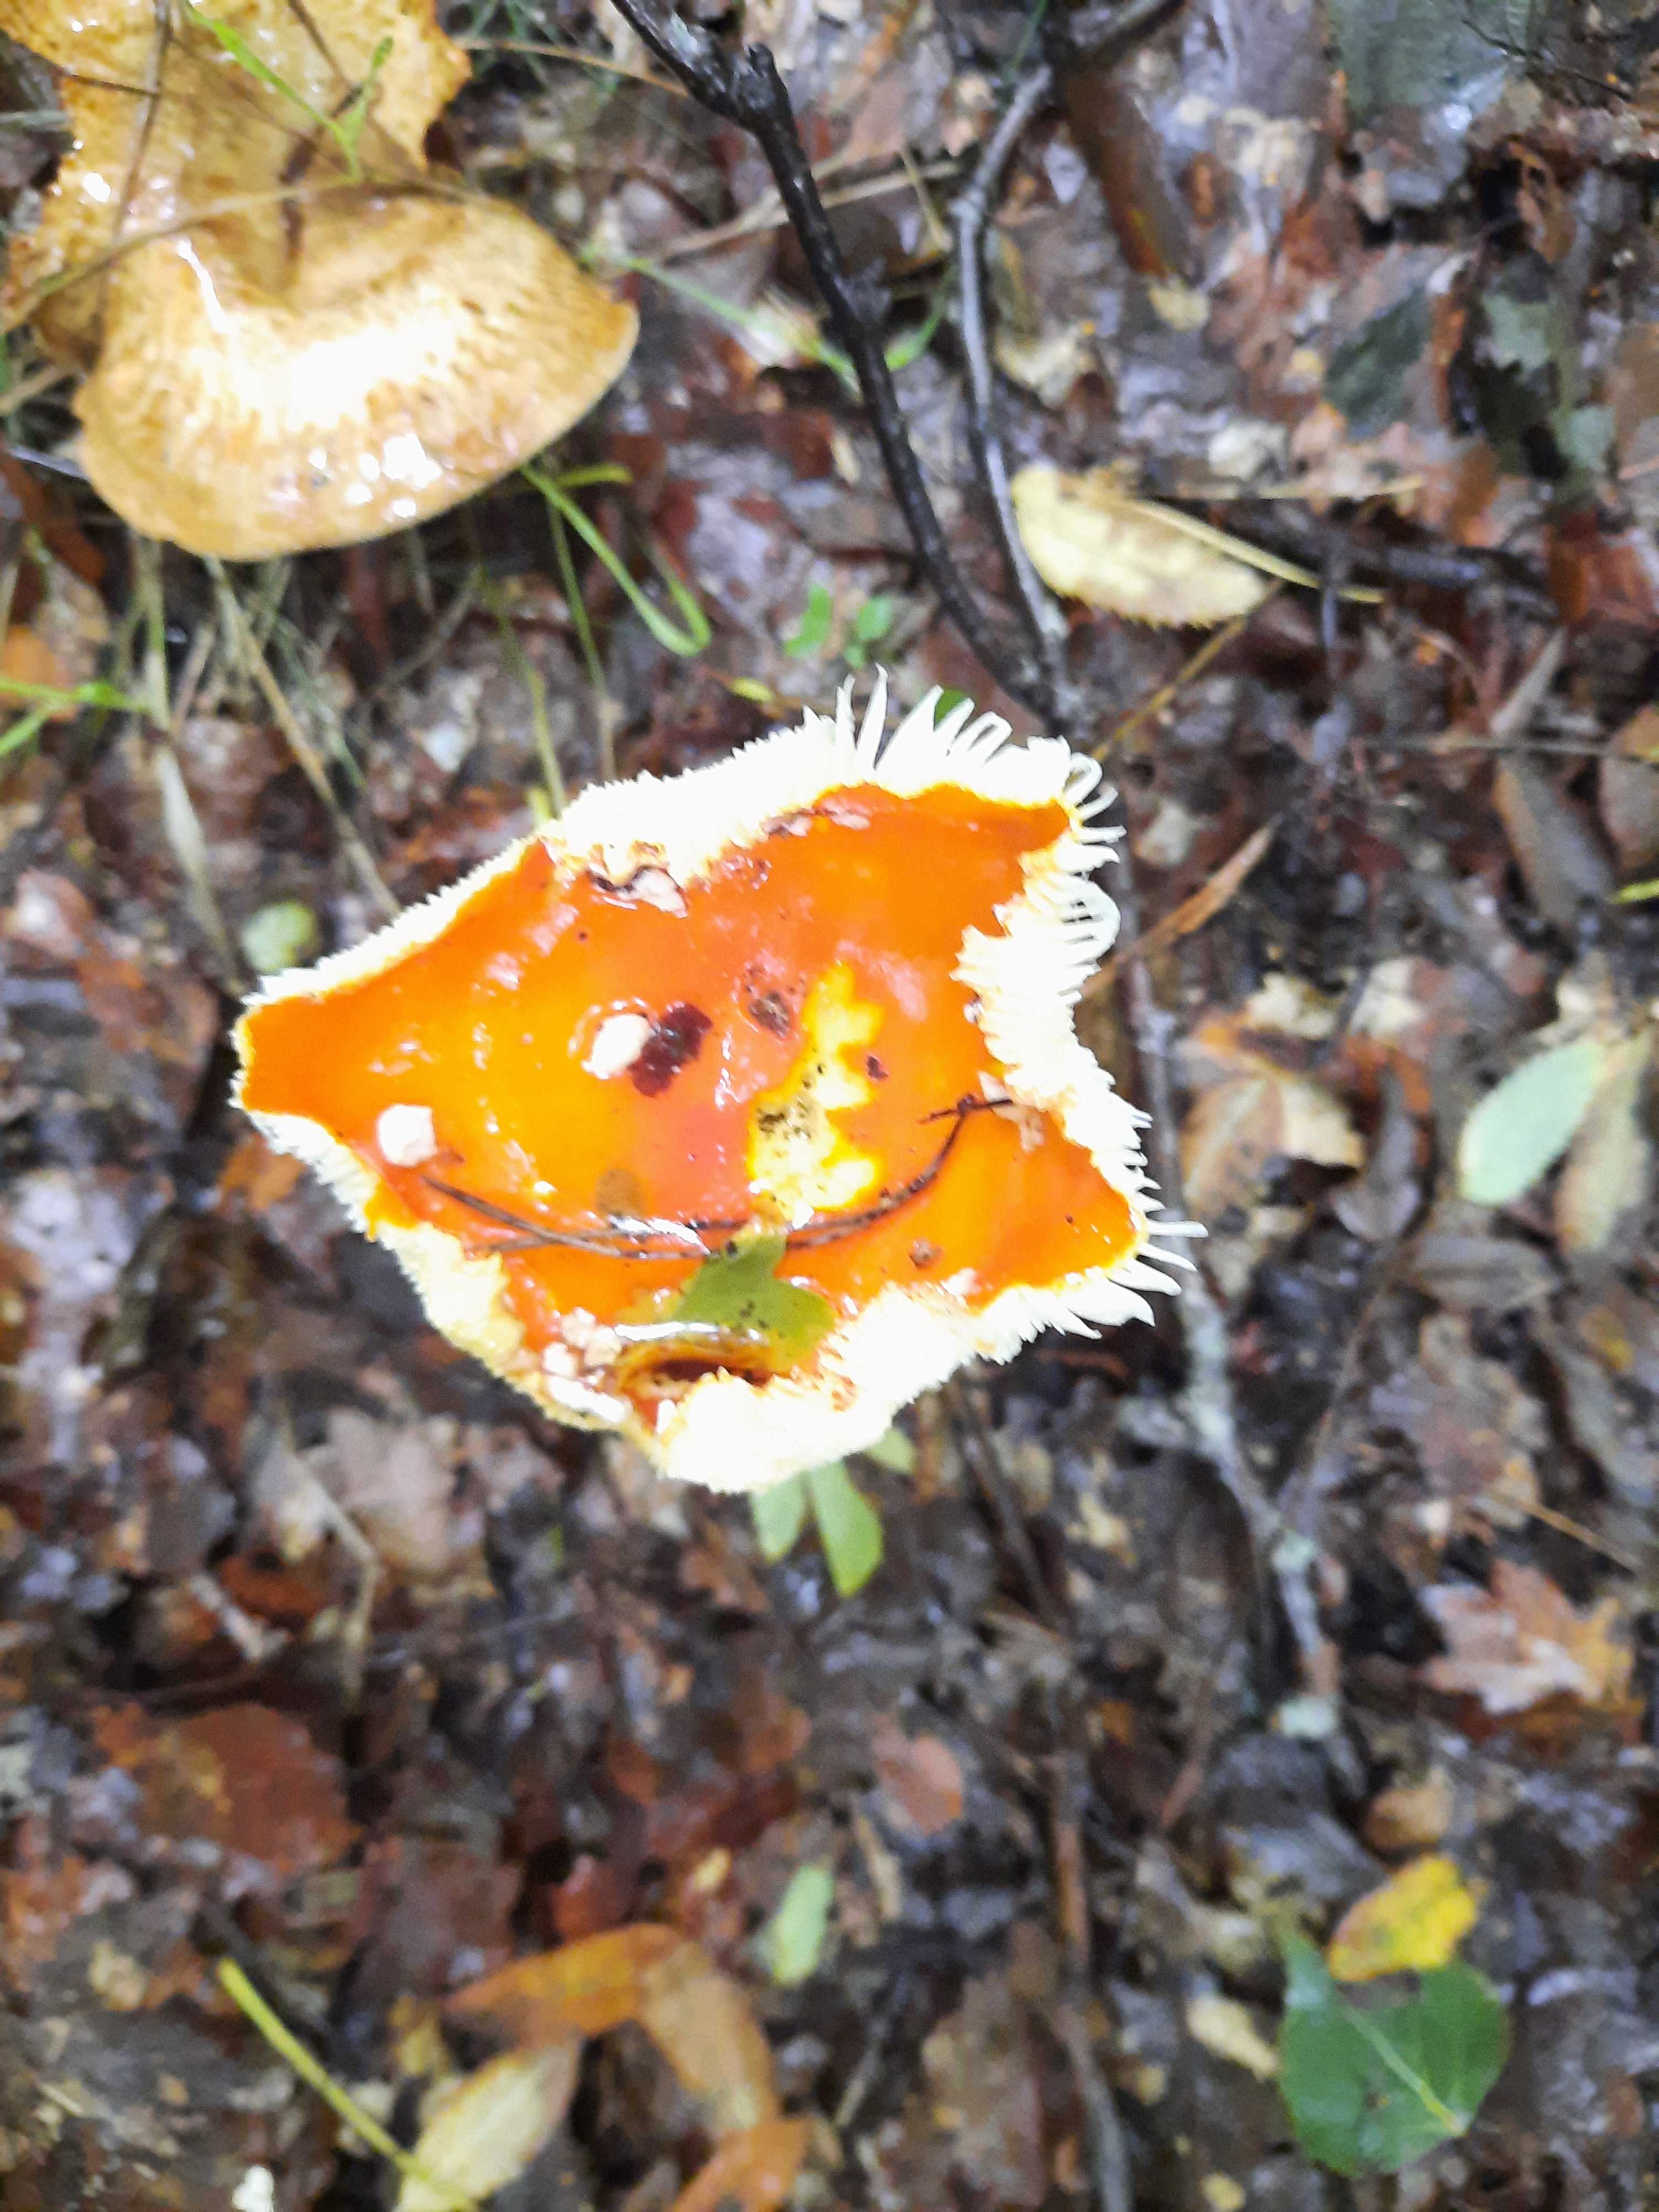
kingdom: Fungi
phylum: Basidiomycota
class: Agaricomycetes
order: Agaricales
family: Amanitaceae
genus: Amanita
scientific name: Amanita muscaria
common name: rød fluesvamp
